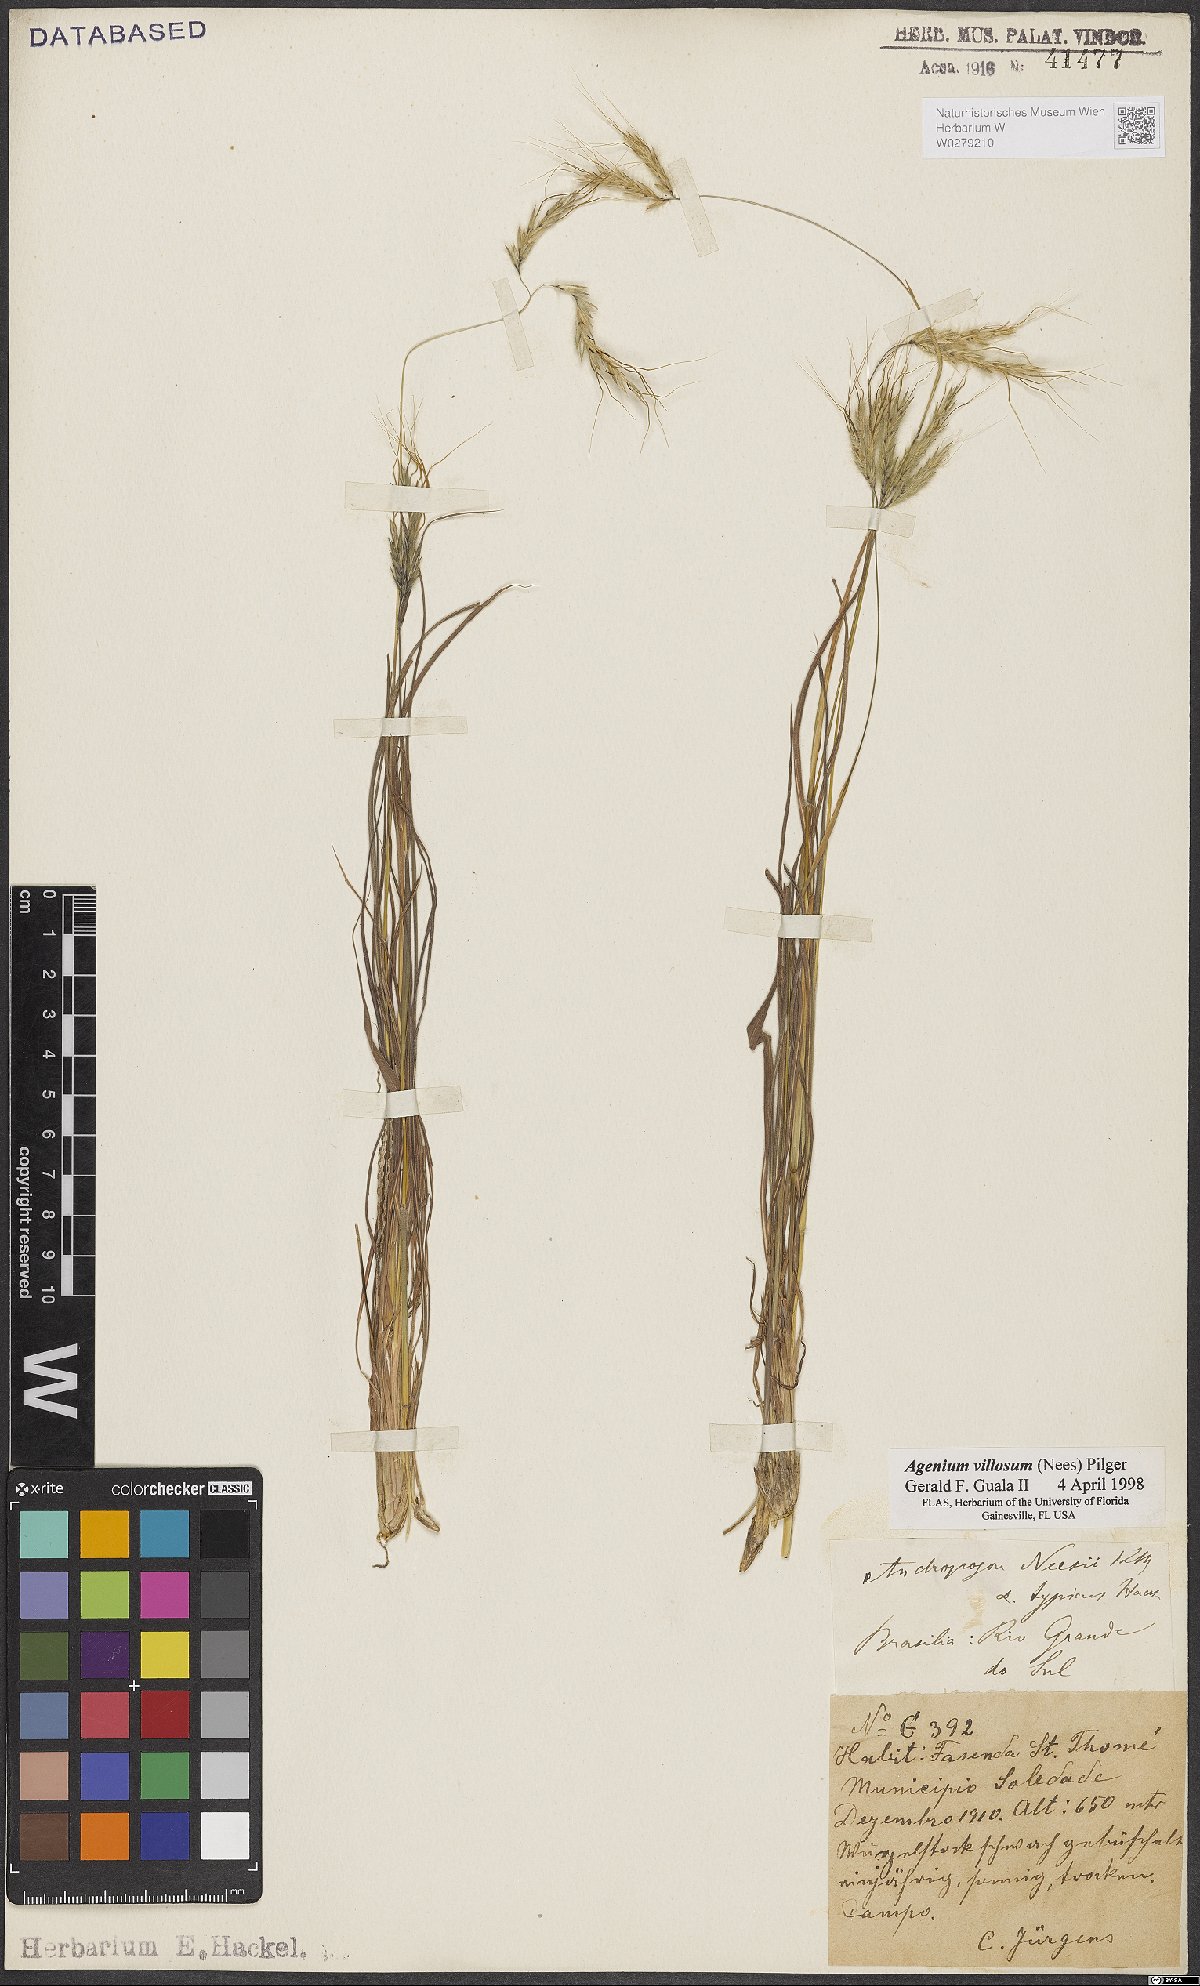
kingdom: Plantae
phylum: Tracheophyta
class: Liliopsida
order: Poales
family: Poaceae
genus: Agenium
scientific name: Agenium villosum
